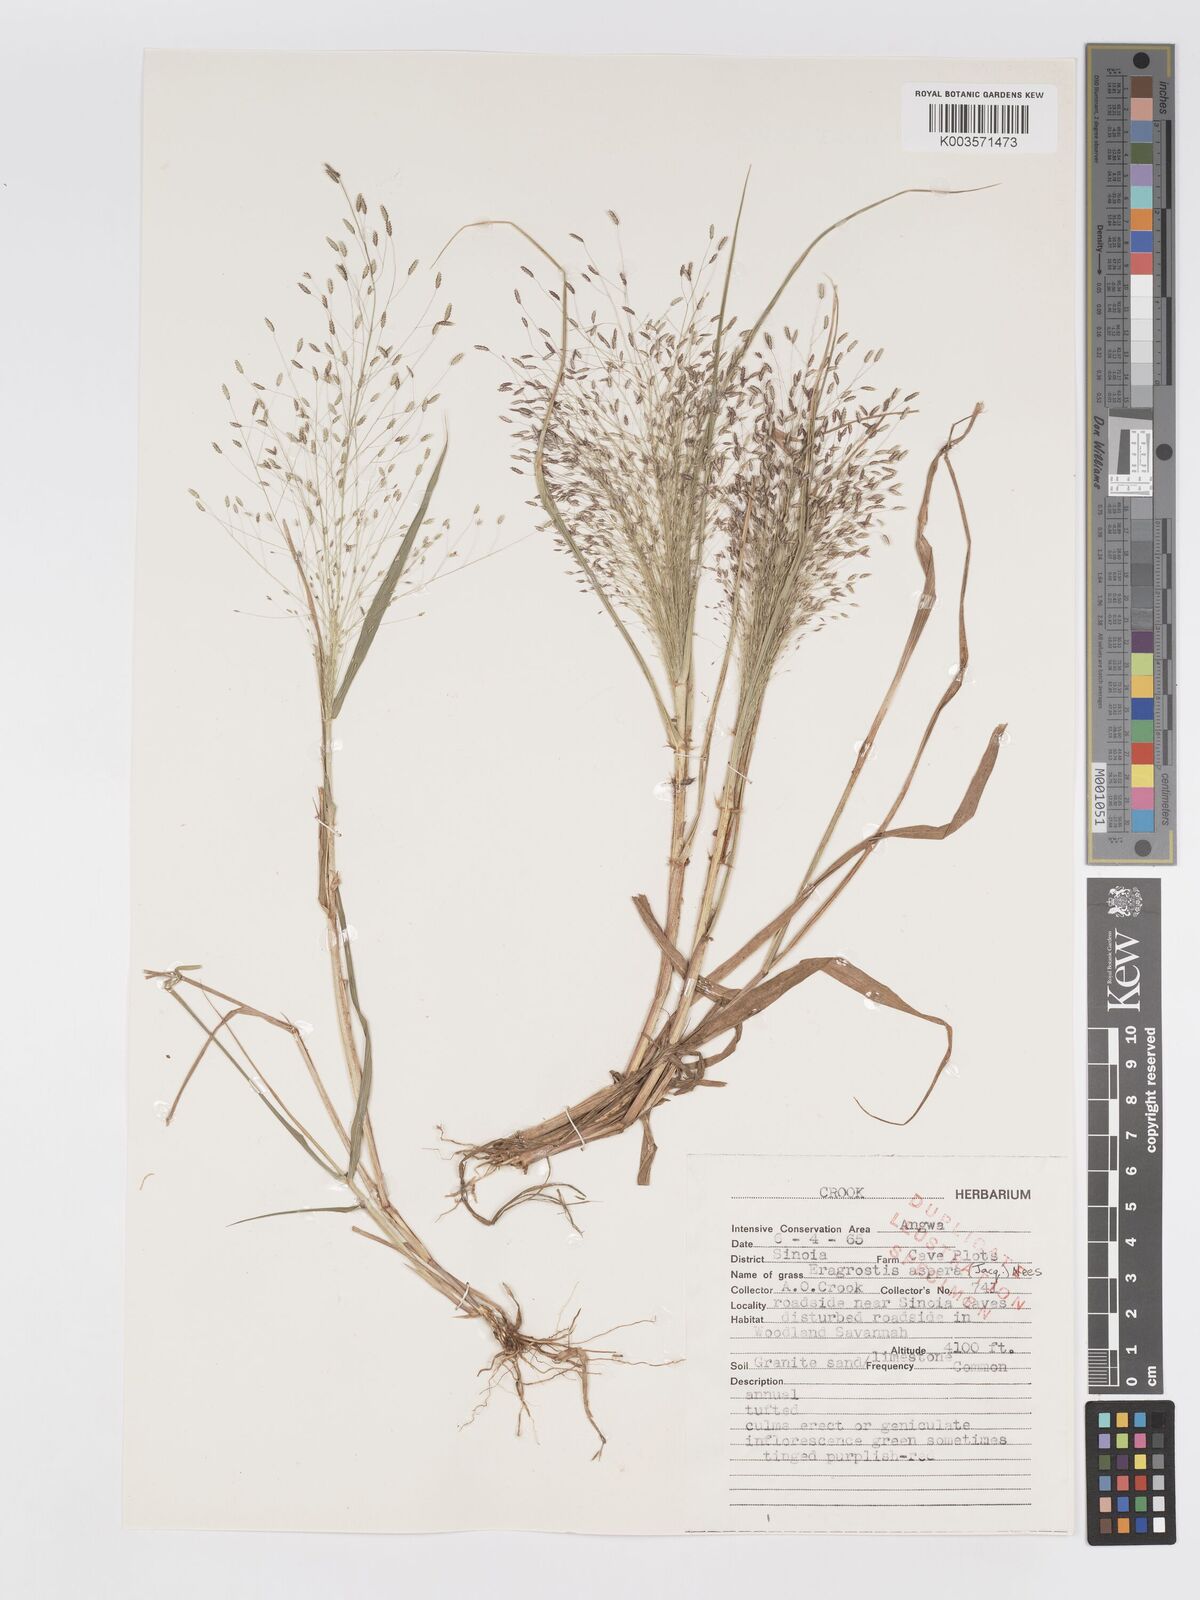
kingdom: Plantae
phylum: Tracheophyta
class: Liliopsida
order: Poales
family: Poaceae
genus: Eragrostis
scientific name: Eragrostis aspera
